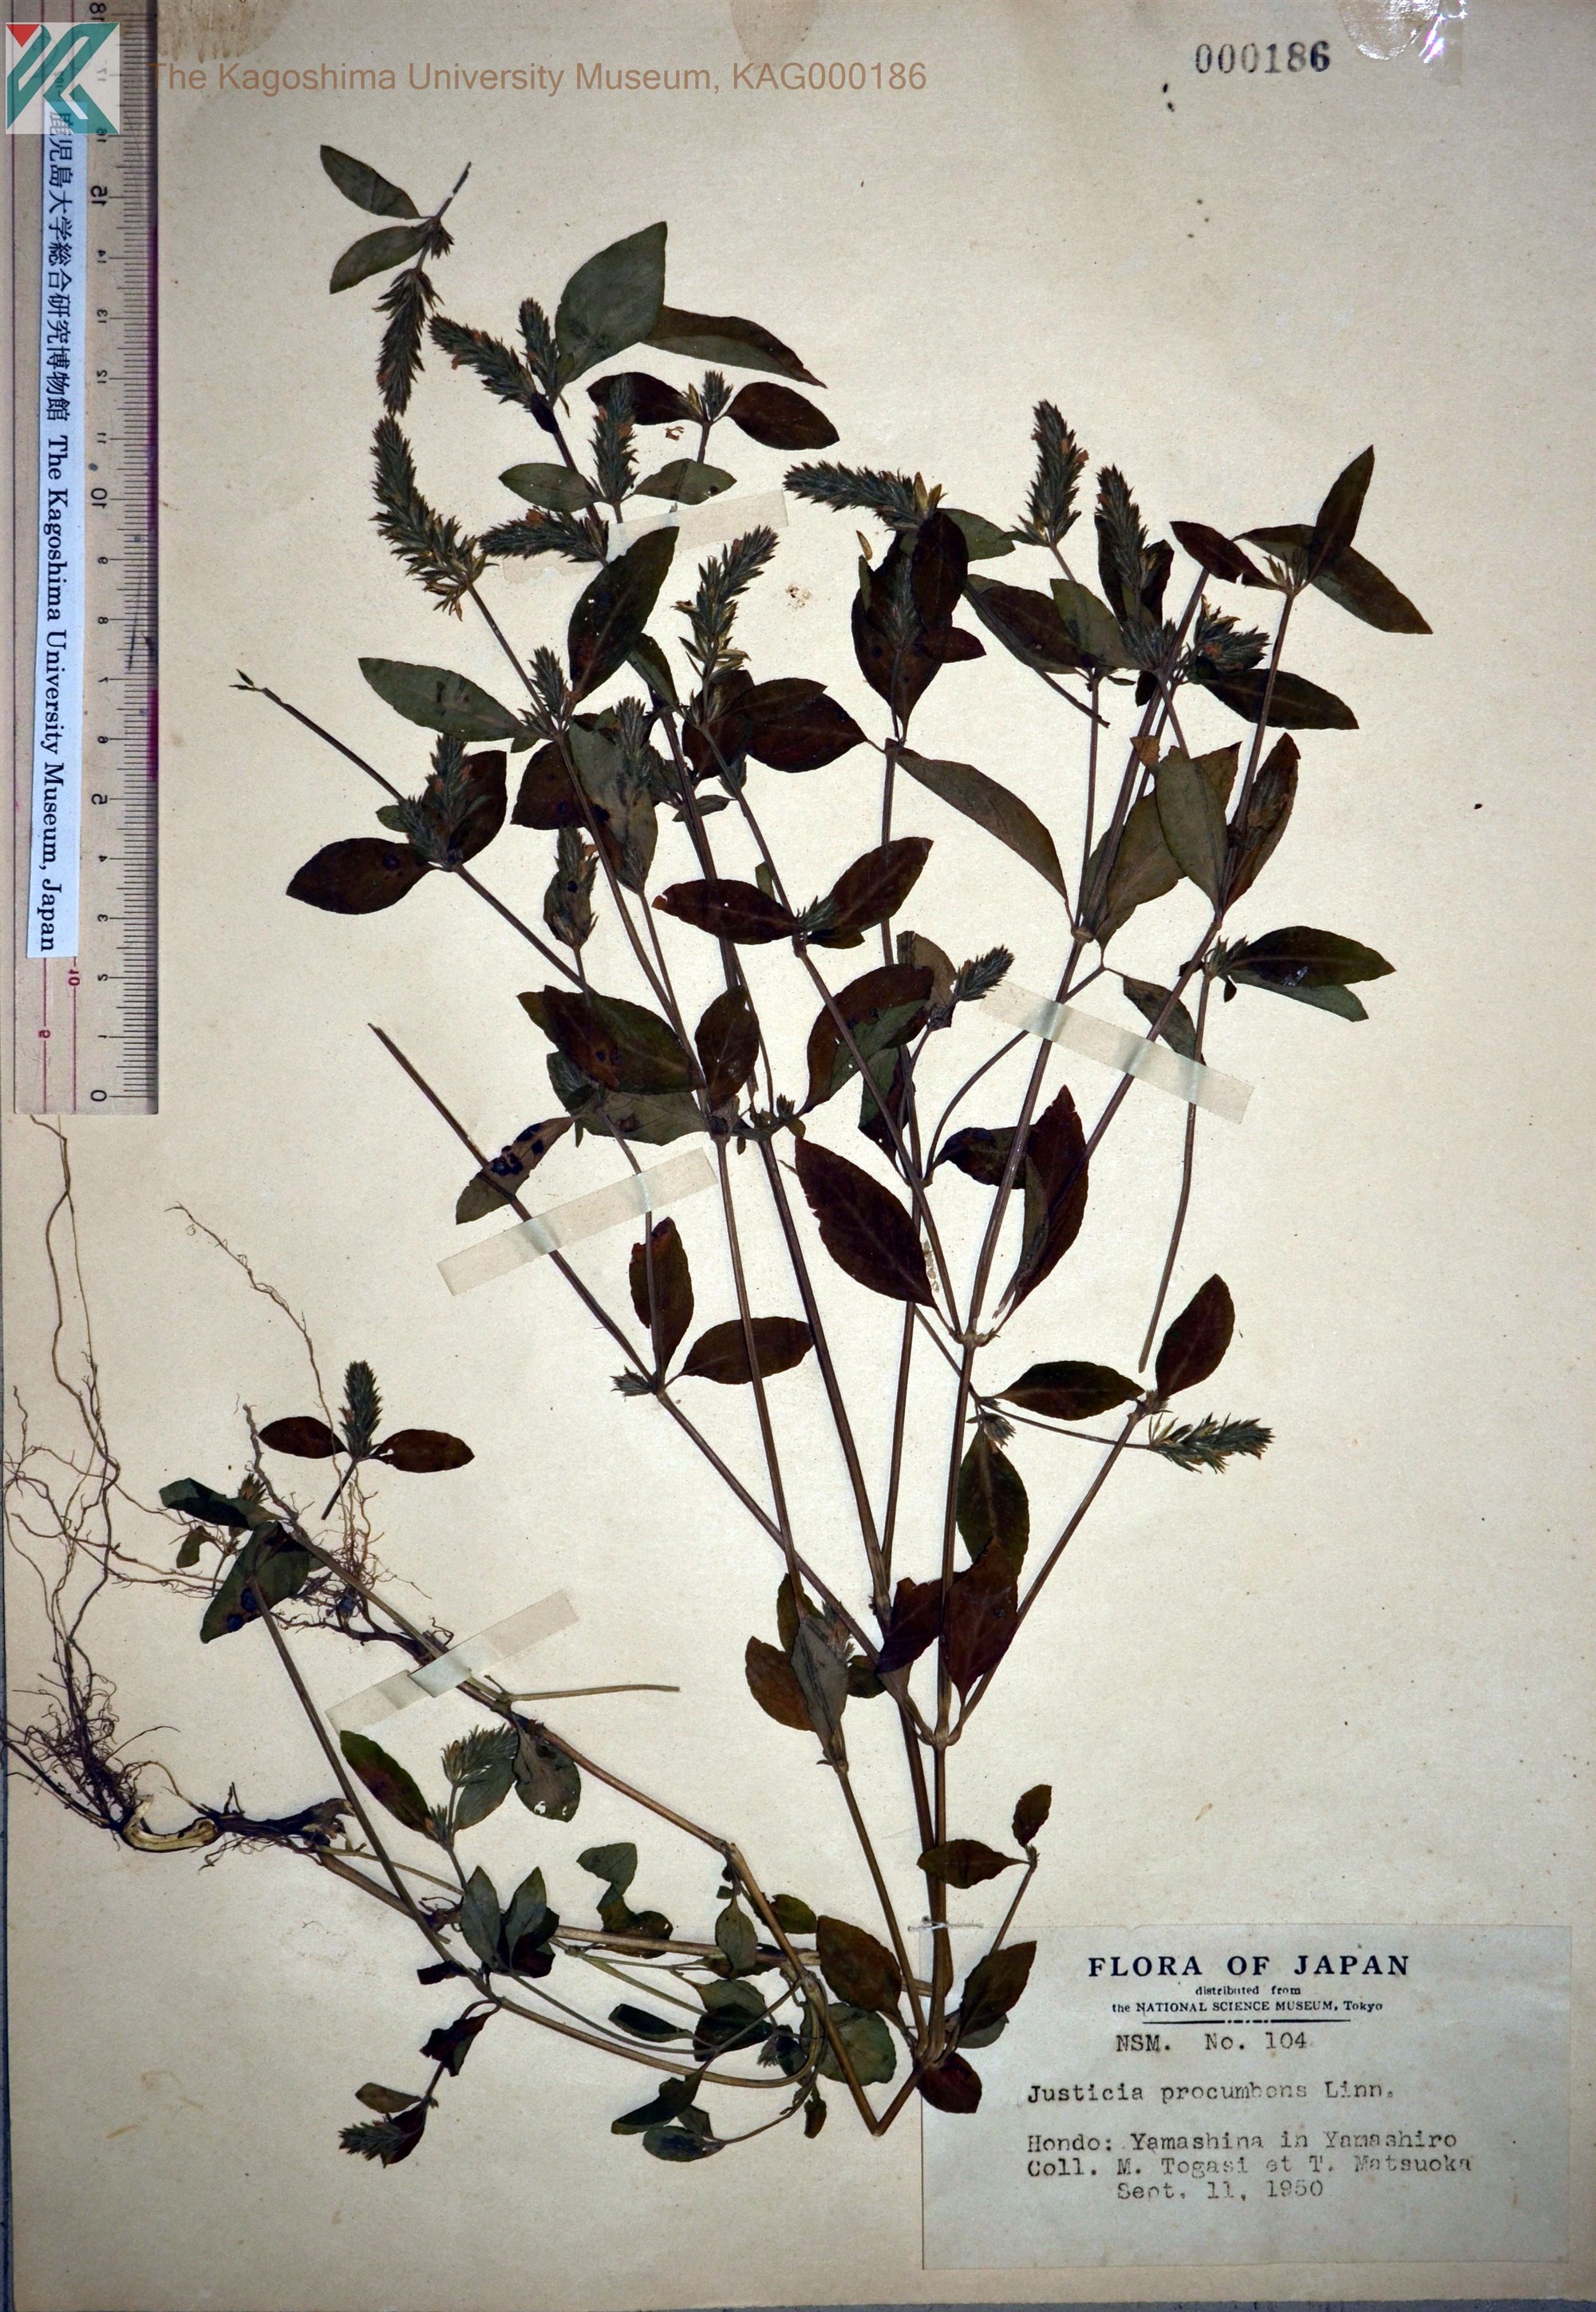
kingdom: Plantae
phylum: Tracheophyta
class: Magnoliopsida
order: Lamiales
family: Acanthaceae
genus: Rostellularia
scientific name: Rostellularia procumbens
